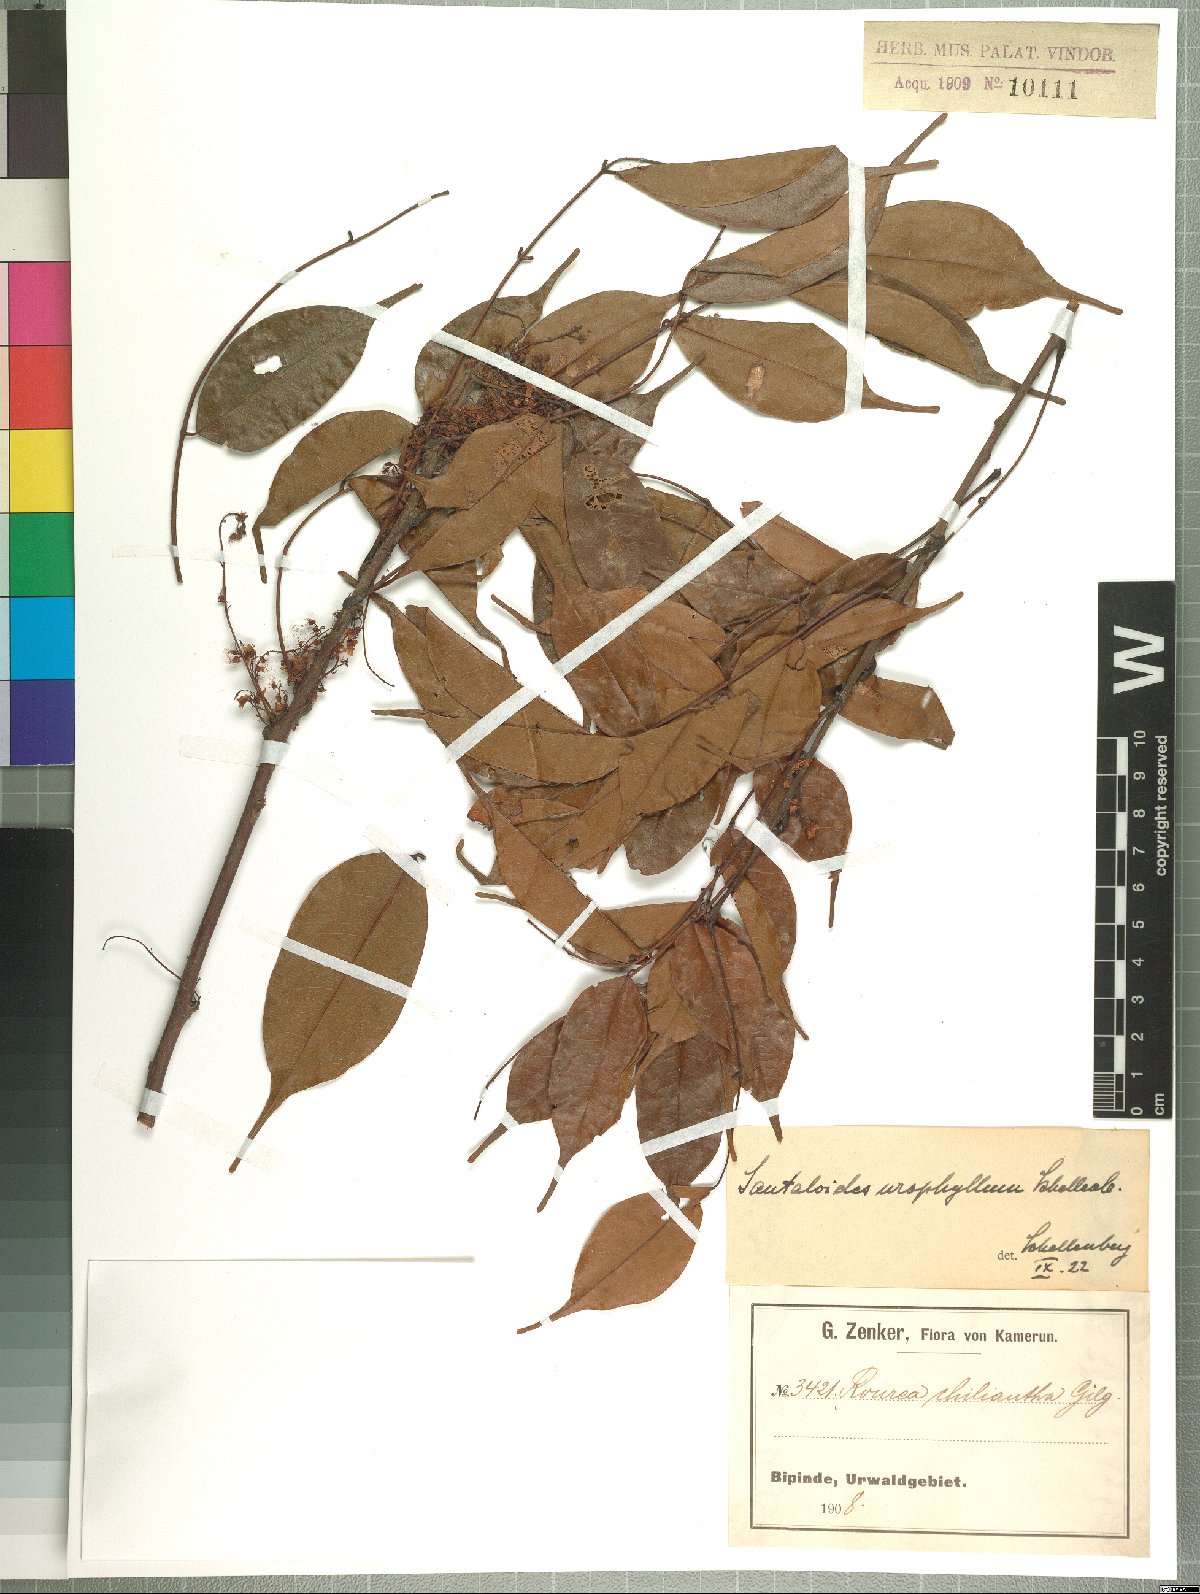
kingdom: Plantae
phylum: Tracheophyta
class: Magnoliopsida
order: Oxalidales
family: Connaraceae
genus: Rourea
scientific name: Rourea minor
